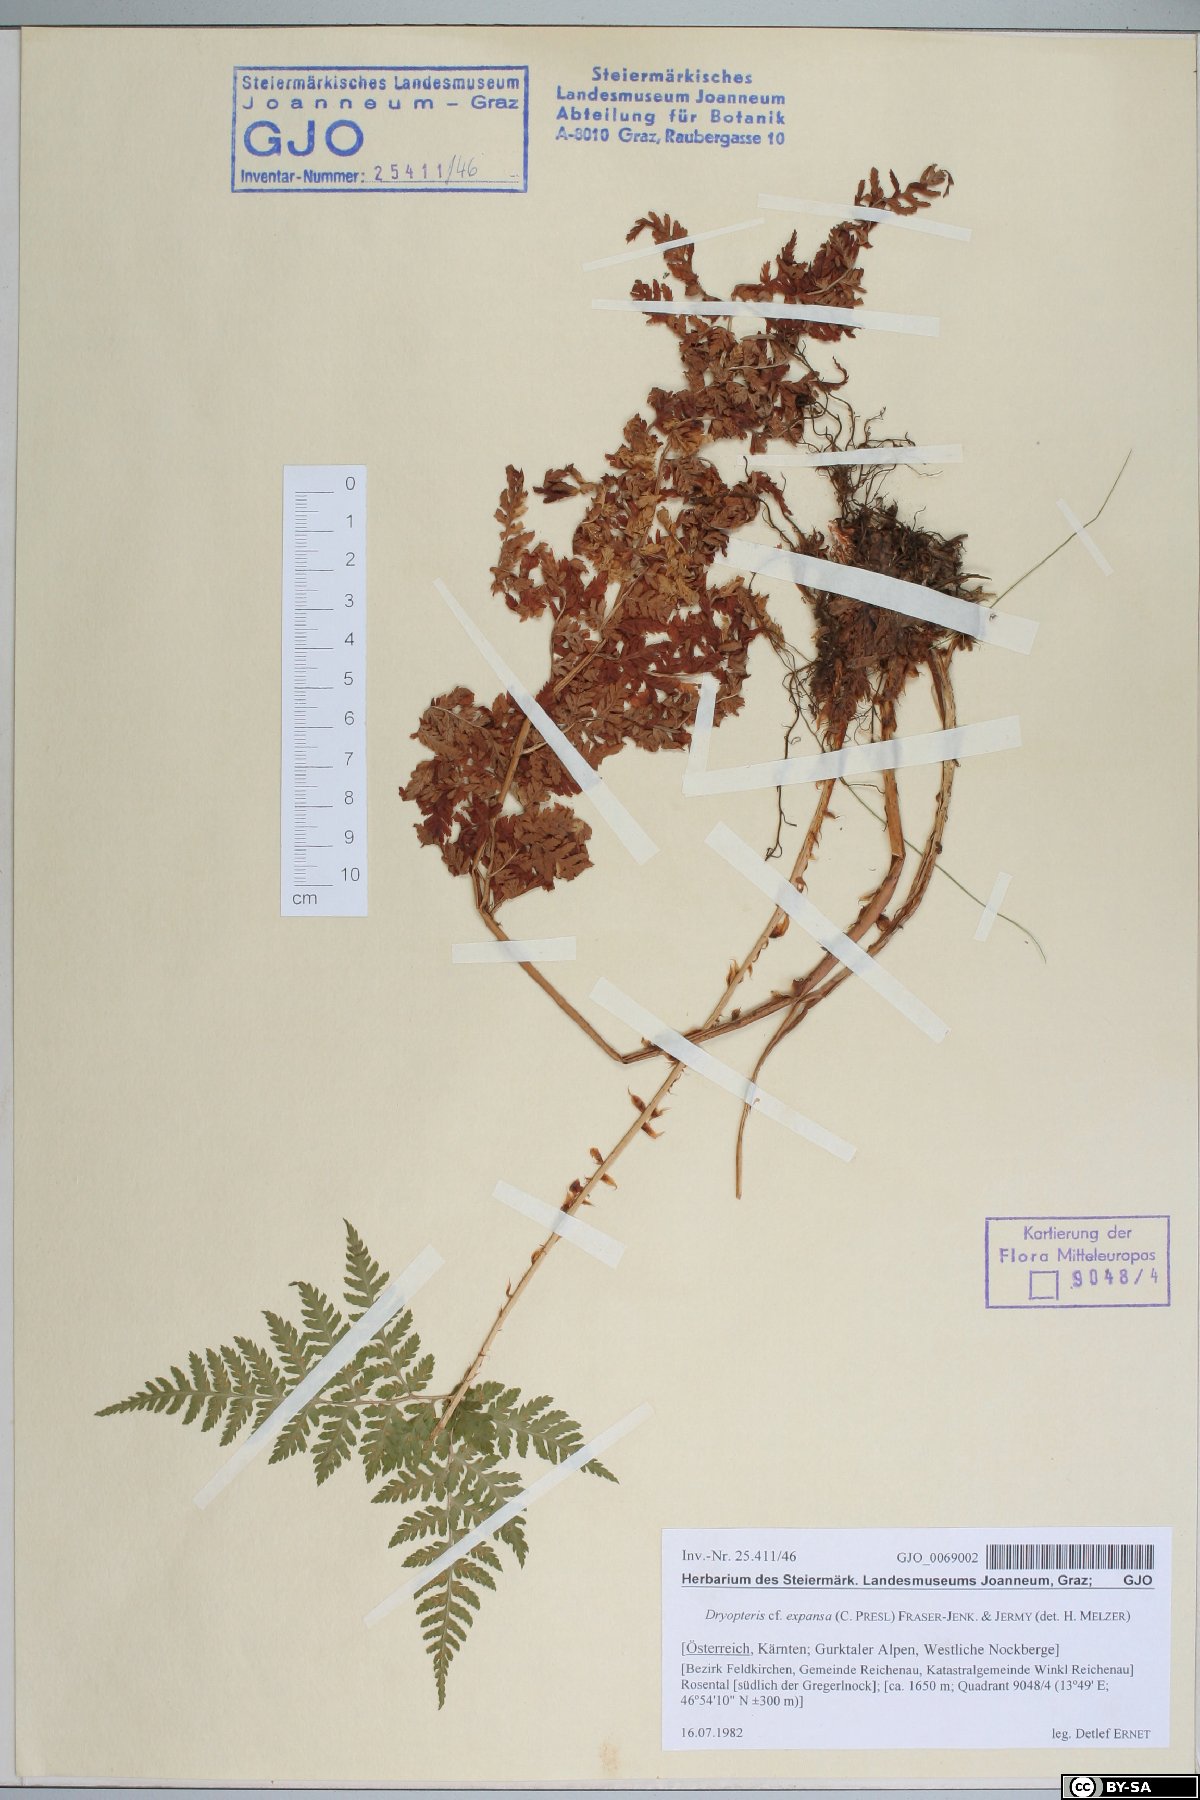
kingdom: Plantae
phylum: Tracheophyta
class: Polypodiopsida
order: Polypodiales
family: Dryopteridaceae
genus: Dryopteris
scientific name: Dryopteris expansa
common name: Northern buckler fern
